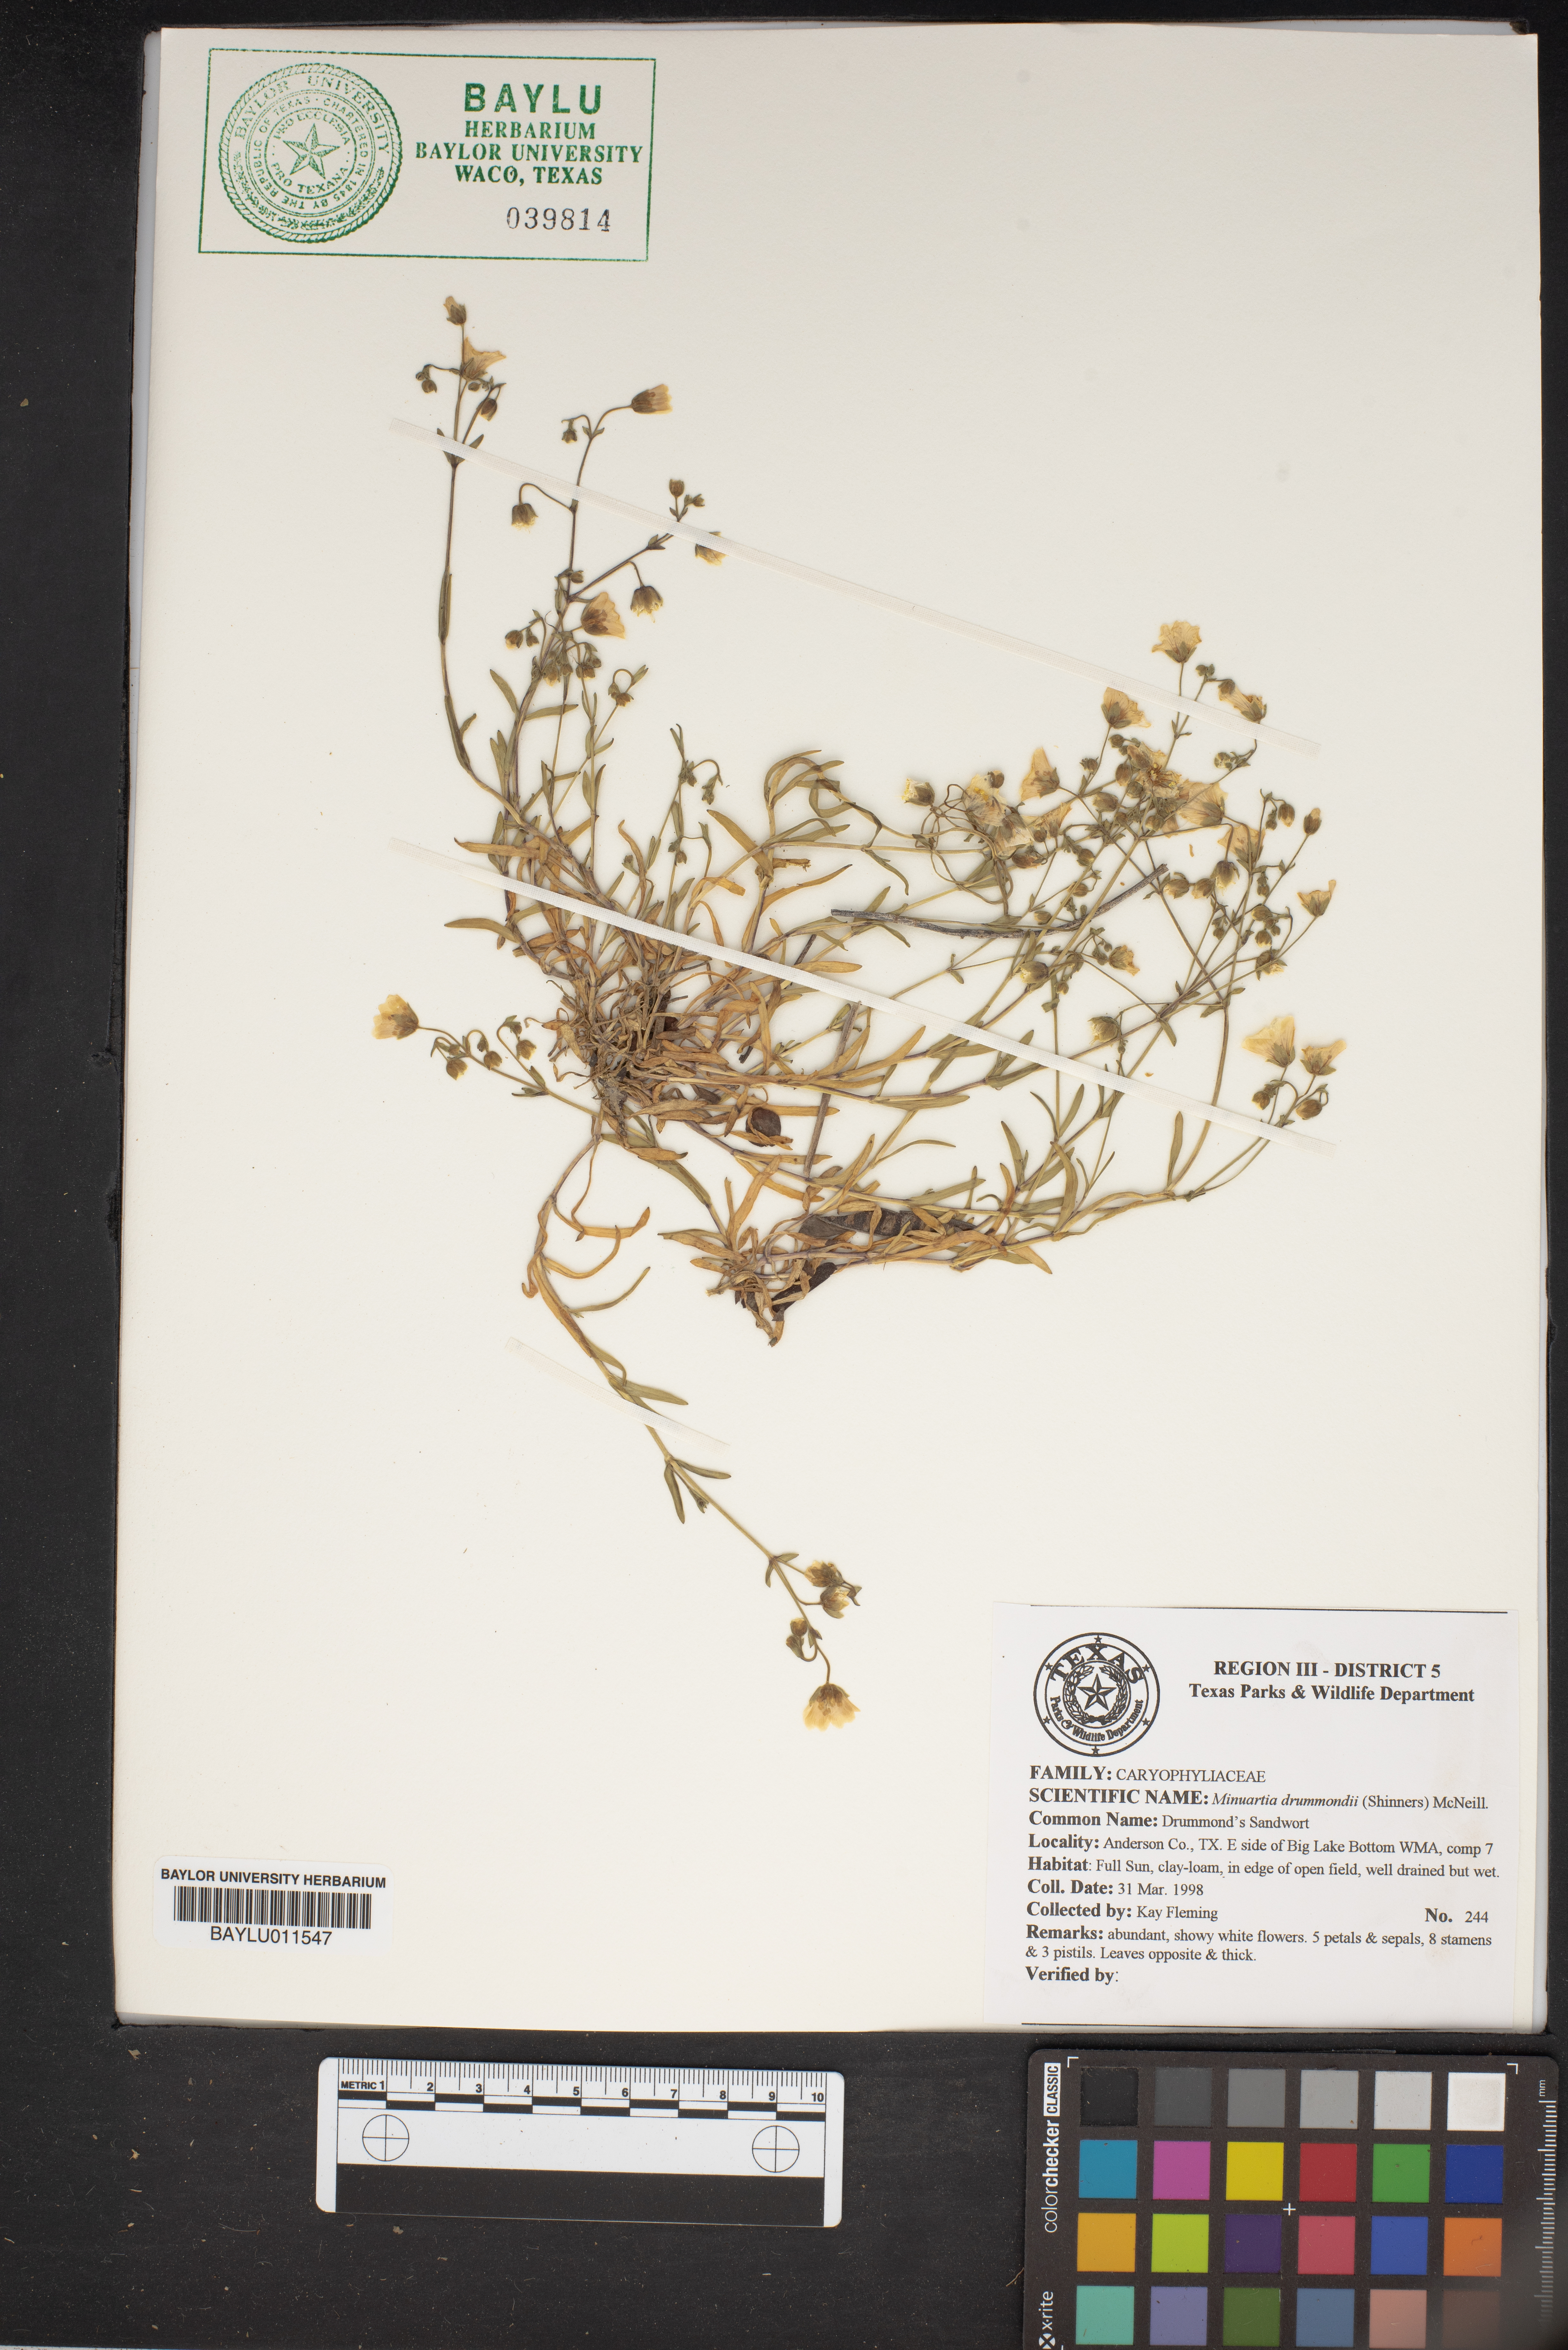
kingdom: Plantae
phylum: Tracheophyta
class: Magnoliopsida
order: Caryophyllales
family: Caryophyllaceae
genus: Geocarpon
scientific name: Geocarpon nuttallii
